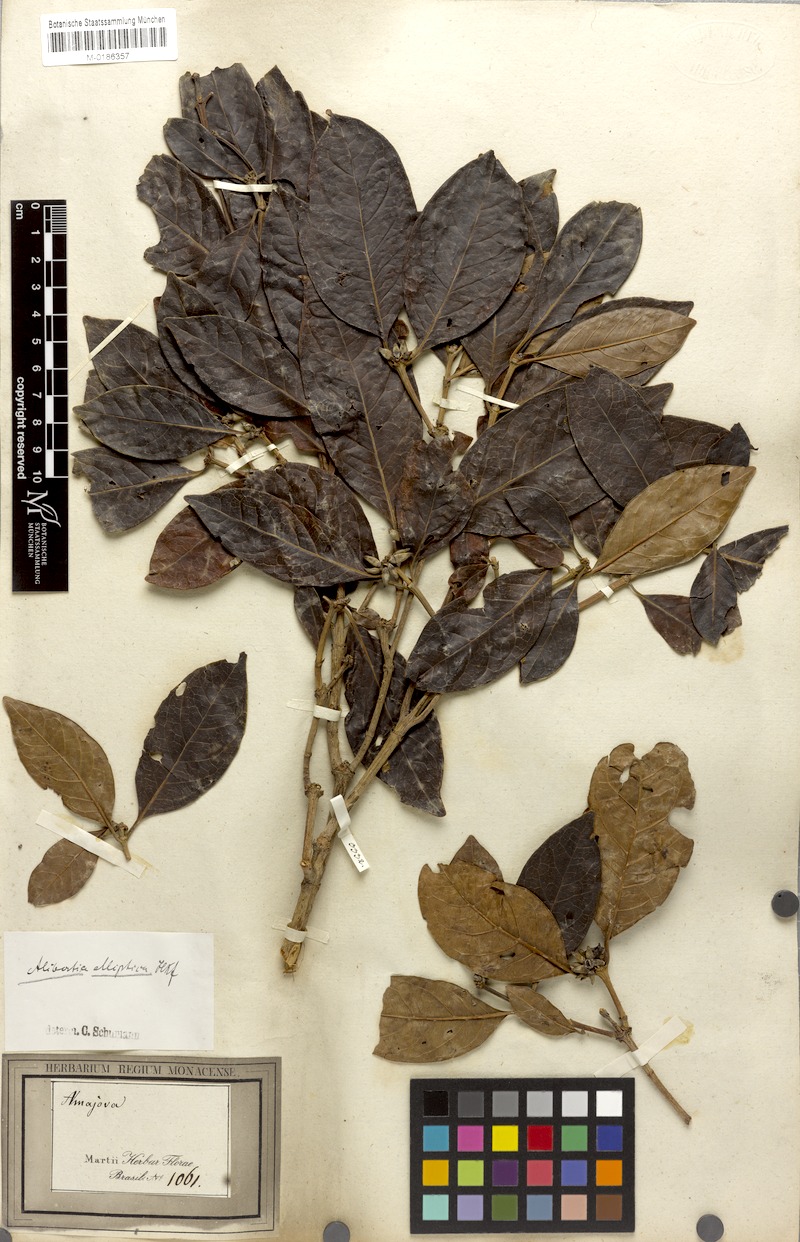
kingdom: Plantae
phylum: Tracheophyta
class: Magnoliopsida
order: Gentianales
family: Rubiaceae
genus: Cordiera
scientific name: Cordiera elliptica
